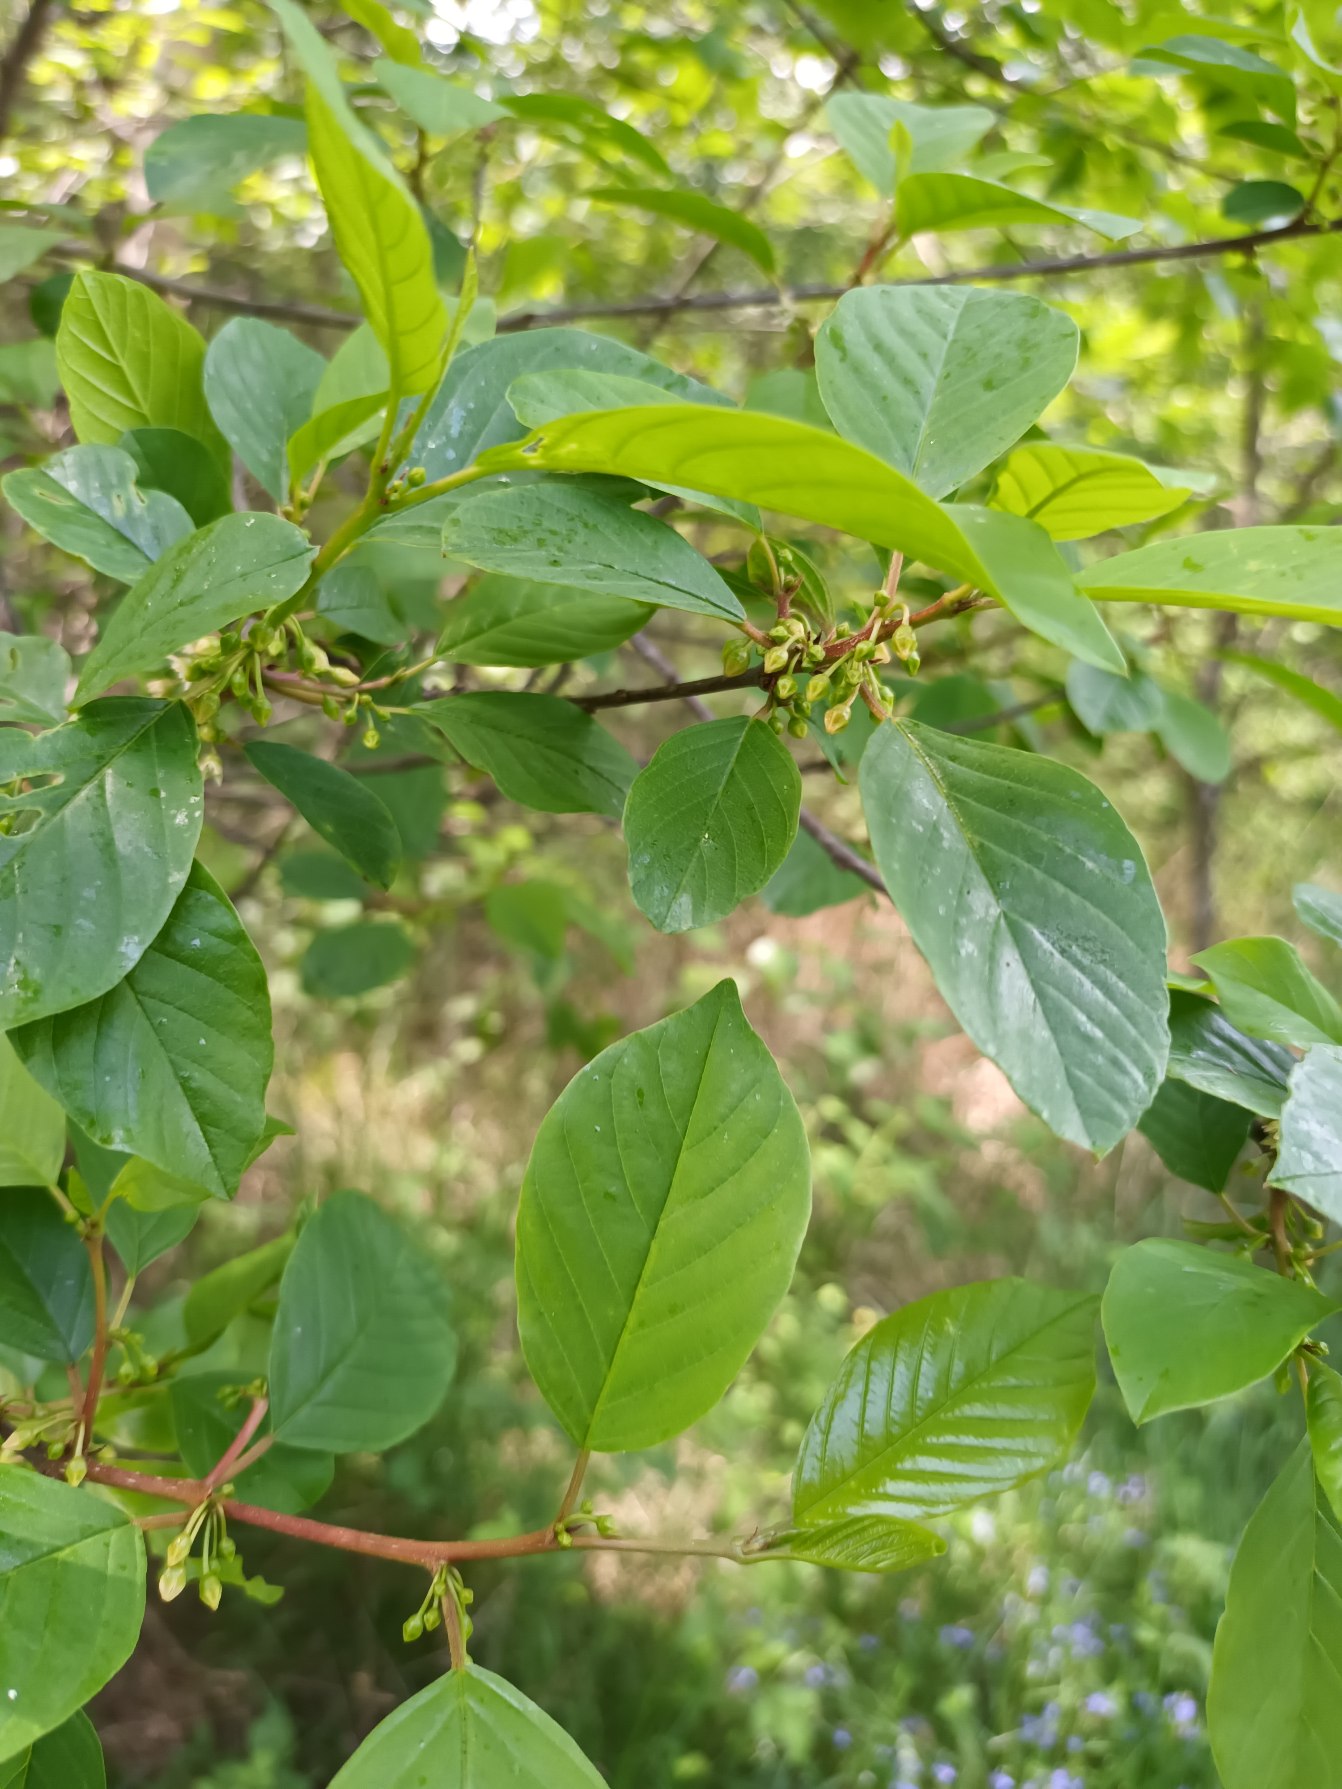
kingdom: Plantae
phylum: Tracheophyta
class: Magnoliopsida
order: Rosales
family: Rhamnaceae
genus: Frangula
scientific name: Frangula alnus
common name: Tørst
